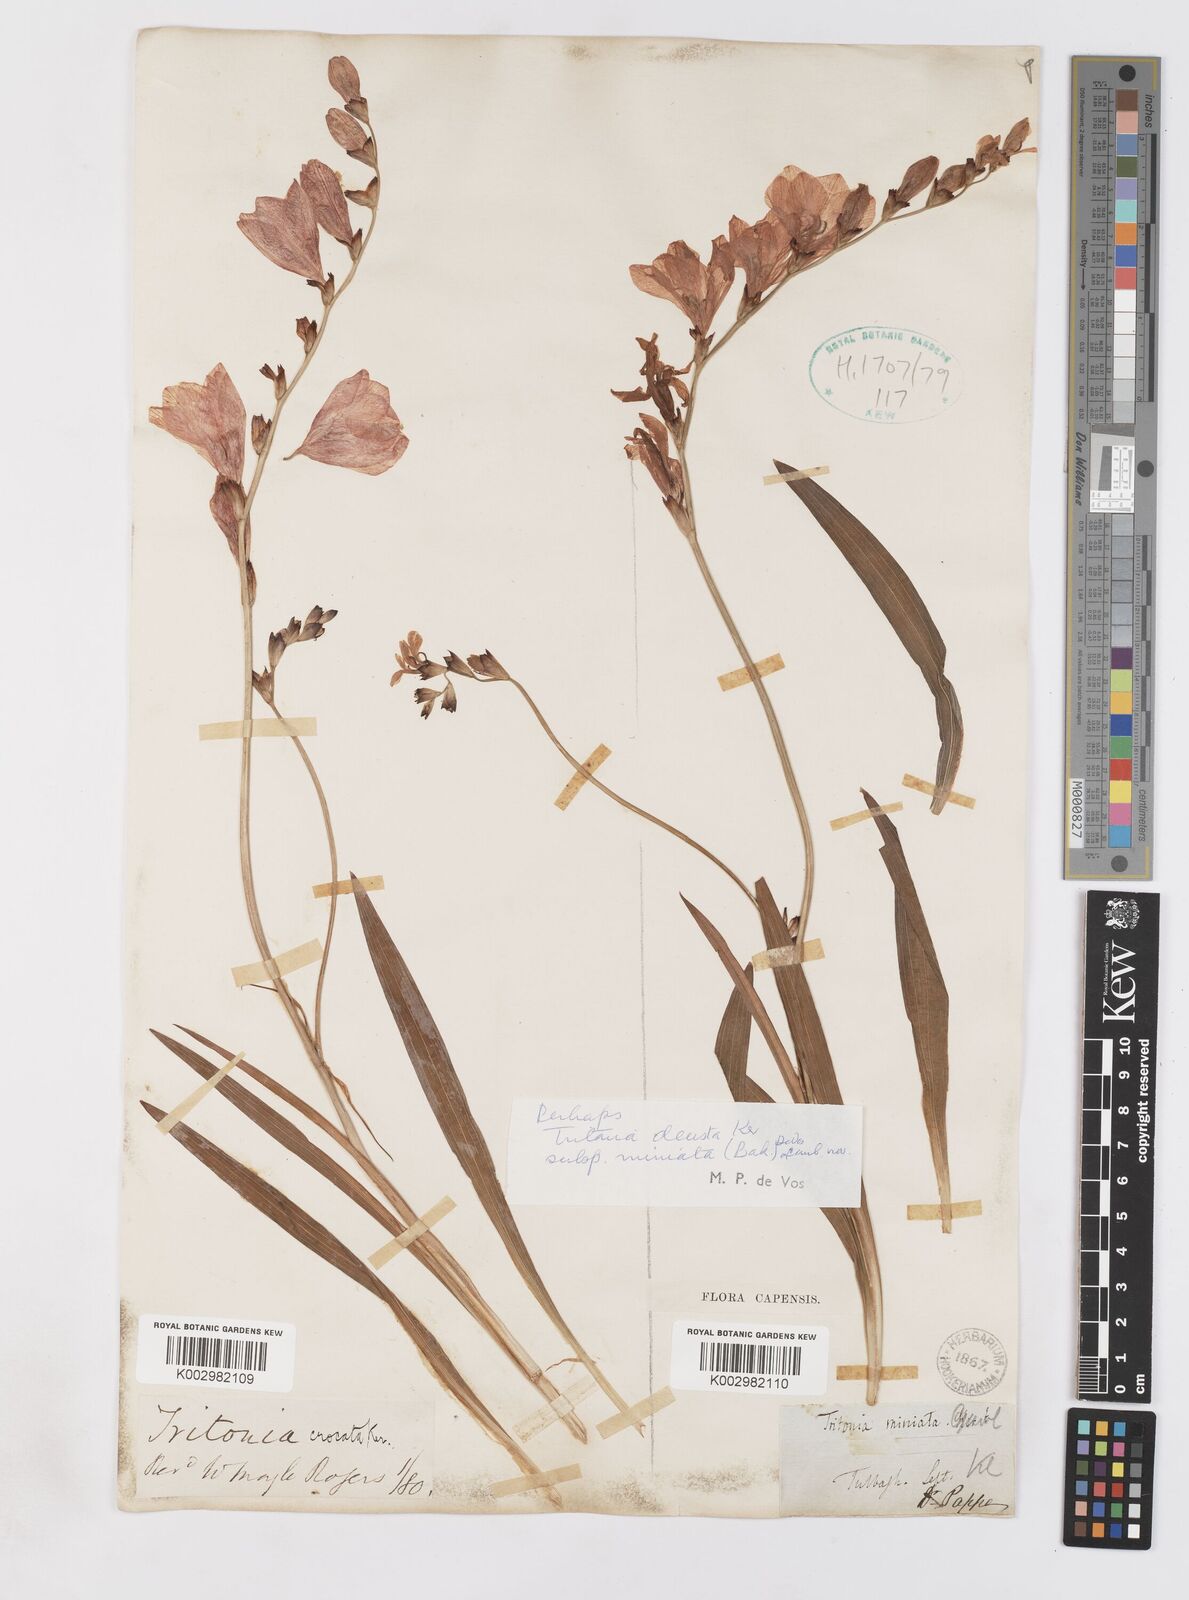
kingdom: Plantae
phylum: Tracheophyta
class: Liliopsida
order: Asparagales
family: Iridaceae
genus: Tritonia
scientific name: Tritonia deusta
